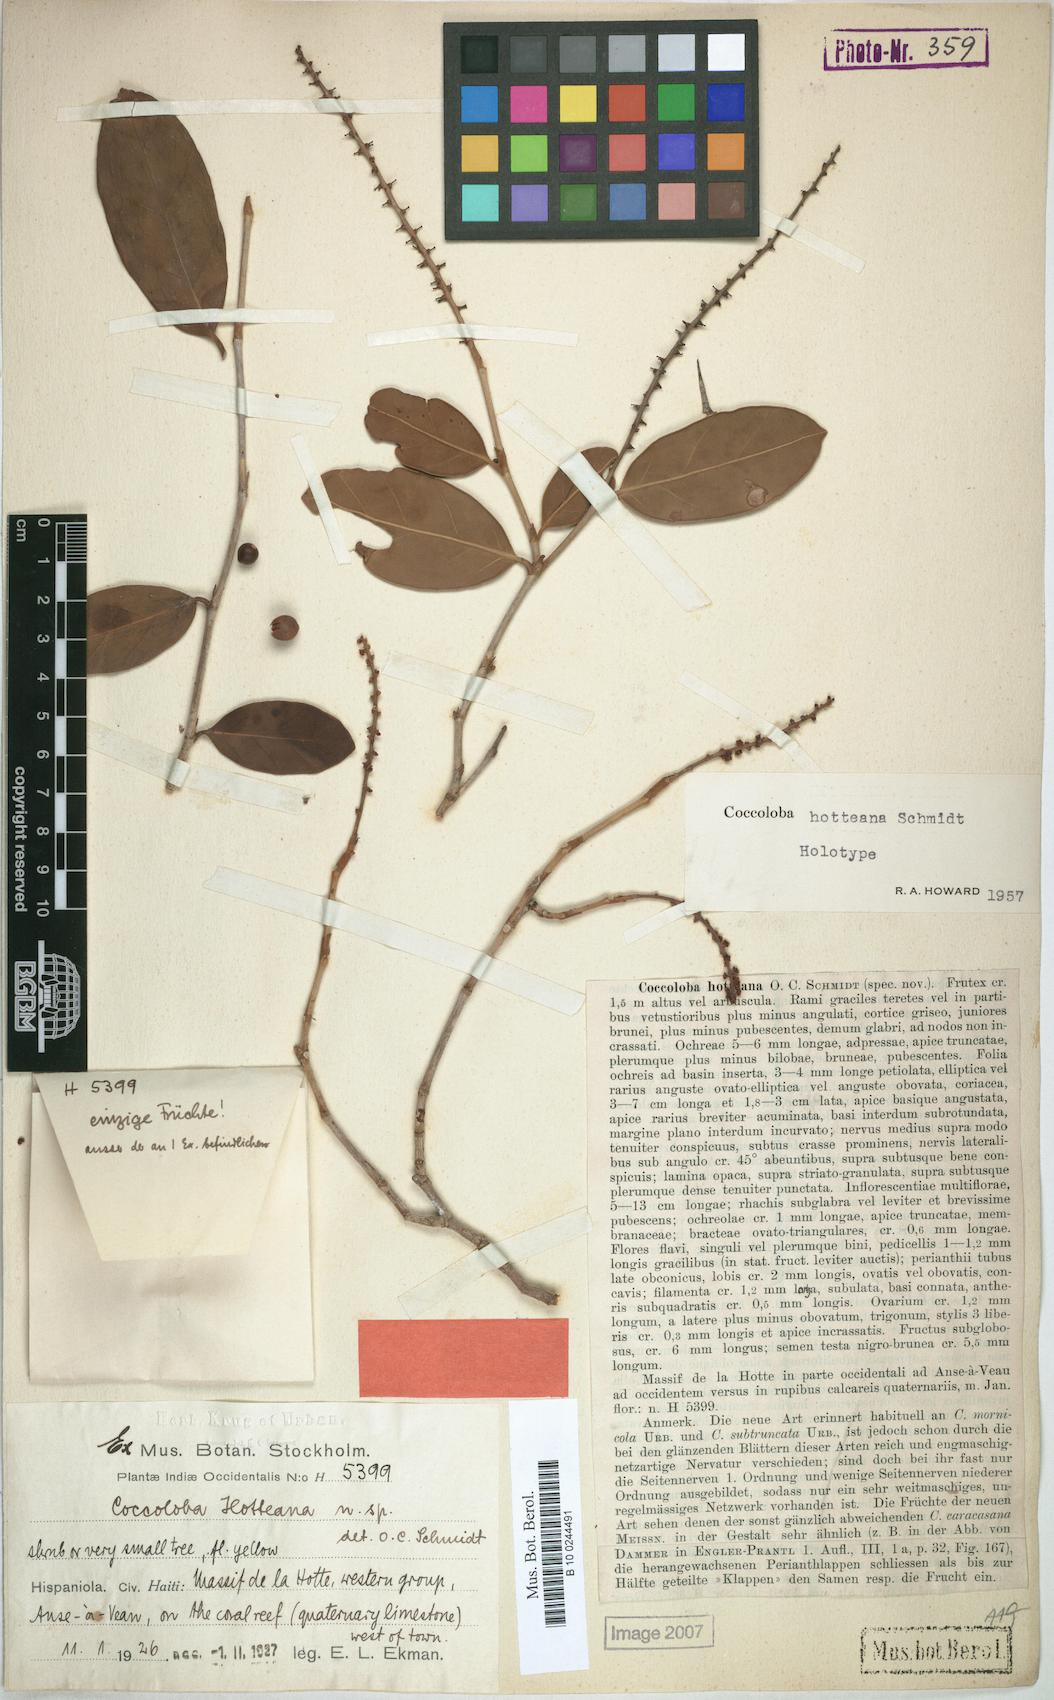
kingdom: Plantae
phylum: Tracheophyta
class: Magnoliopsida
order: Caryophyllales
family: Polygonaceae
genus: Coccoloba
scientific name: Coccoloba hotteana
